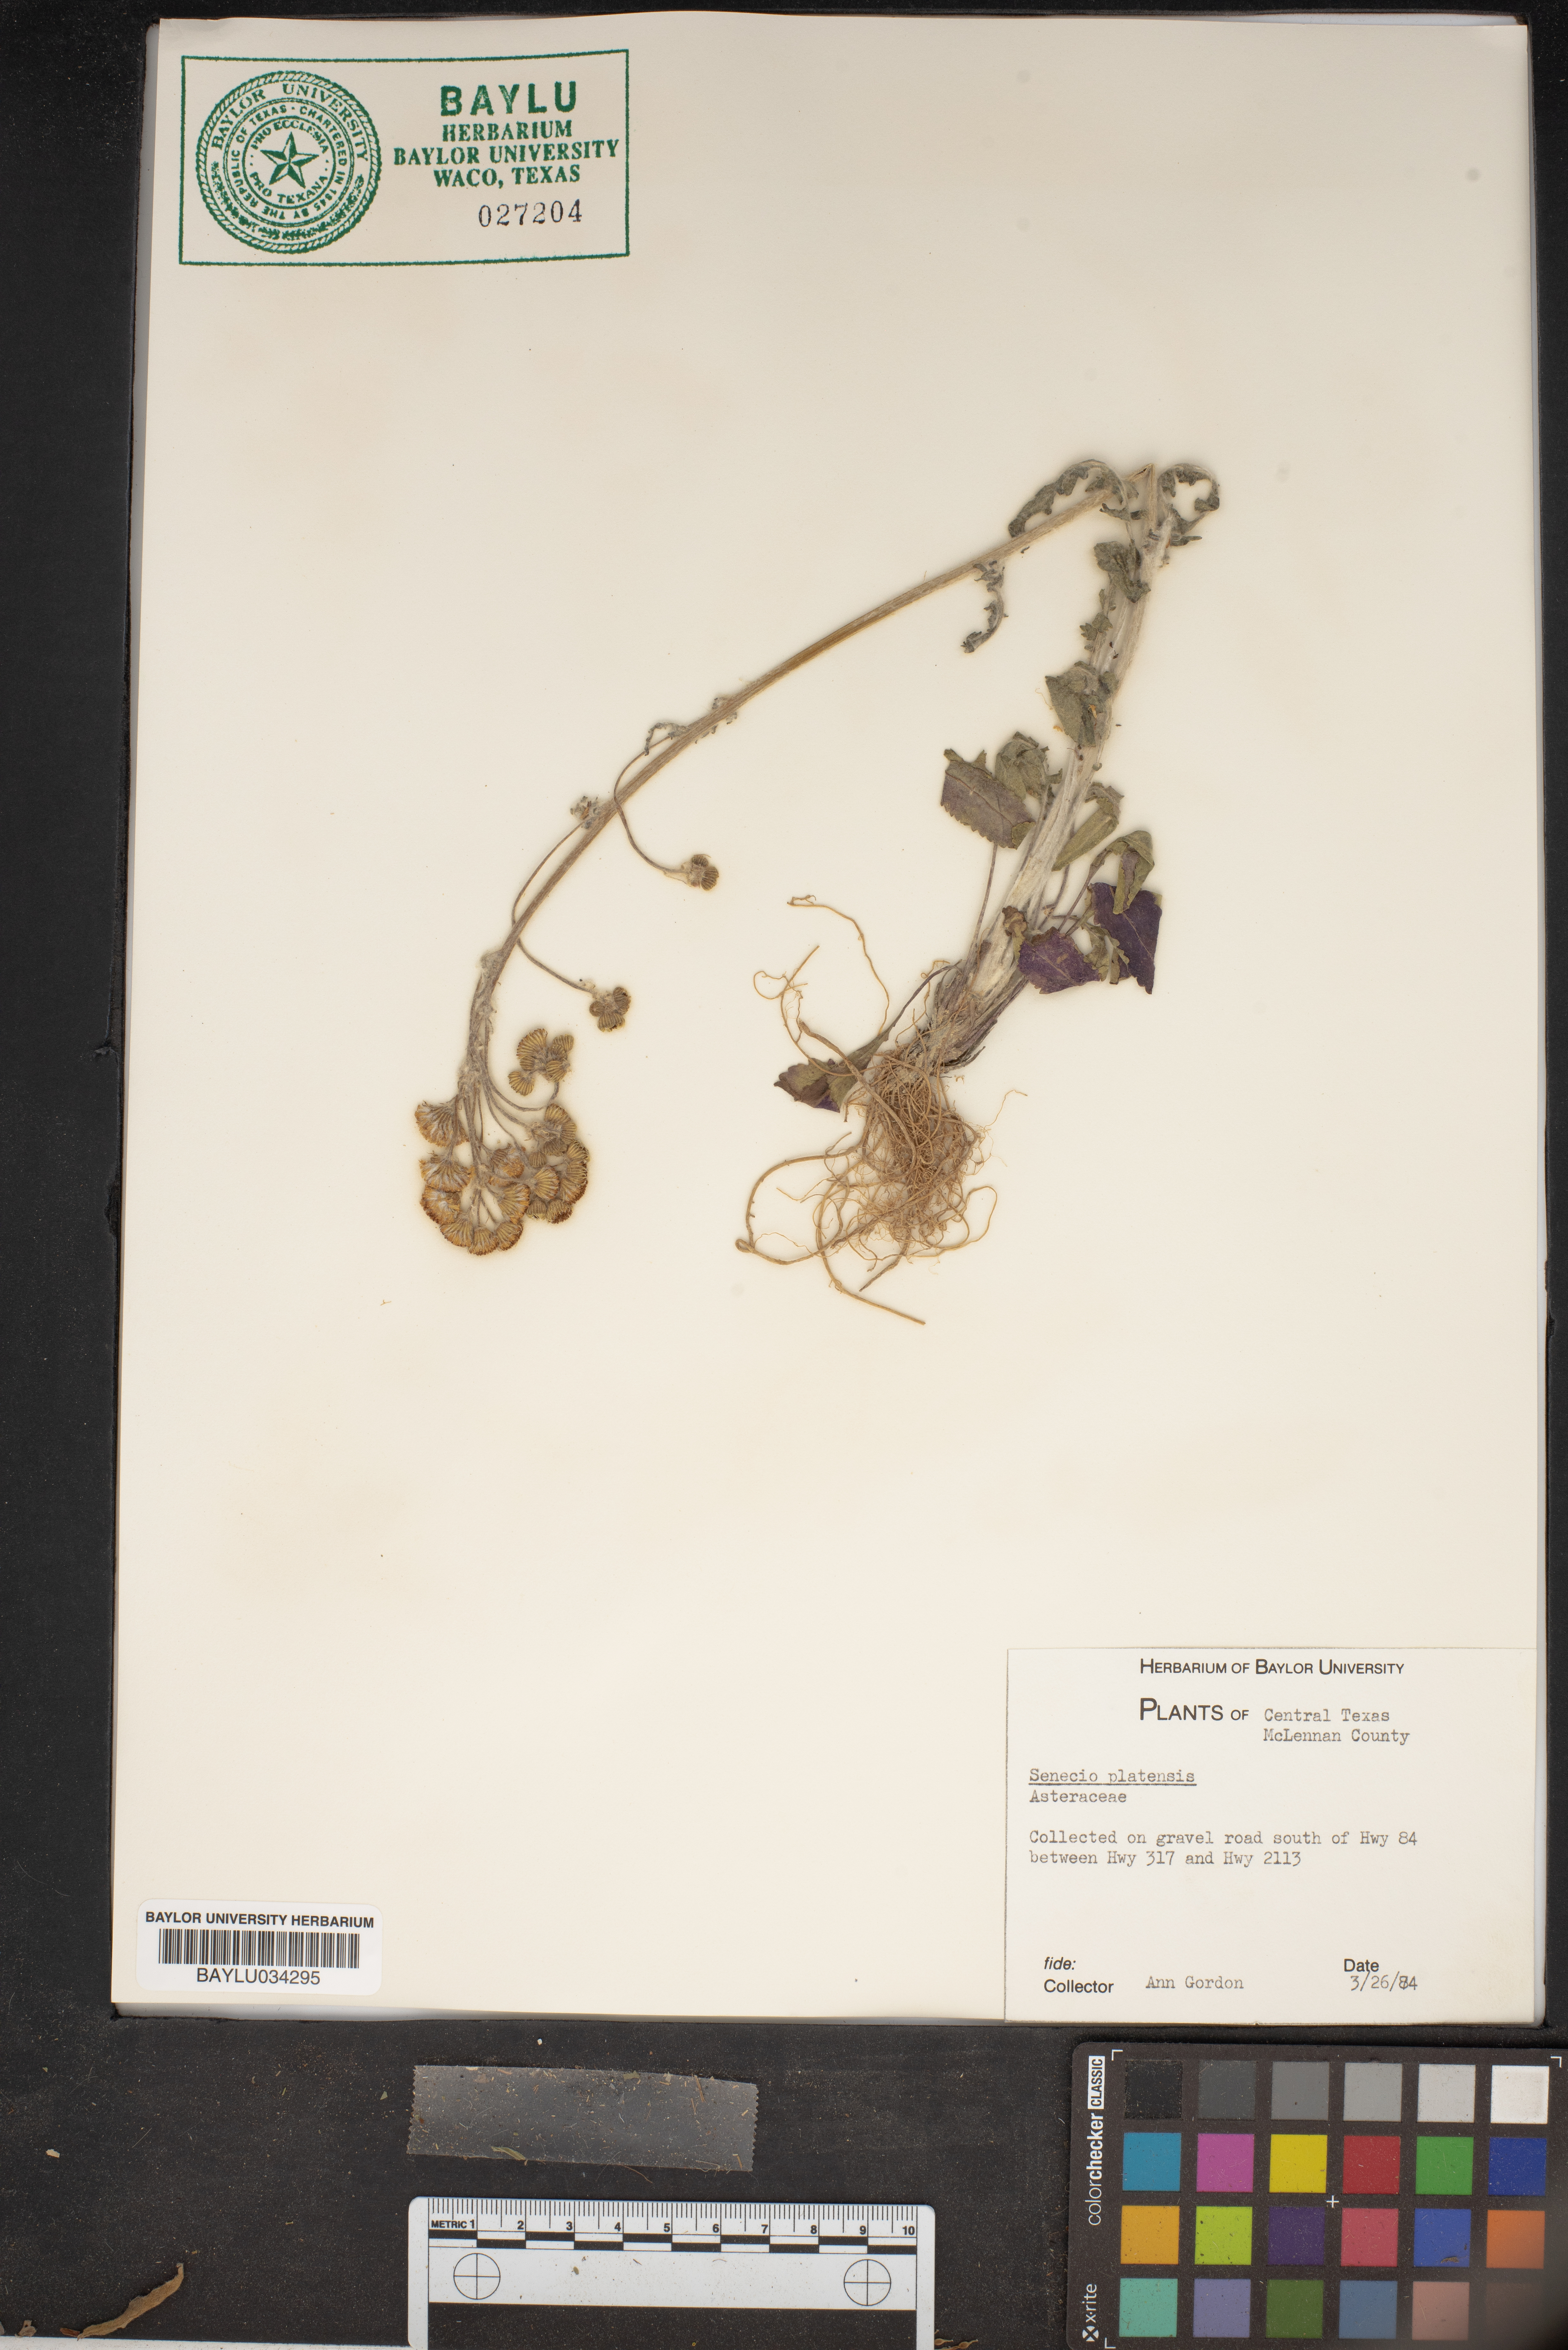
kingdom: Plantae
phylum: Tracheophyta
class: Magnoliopsida
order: Asterales
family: Asteraceae
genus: Senecio
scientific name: Senecio platensis
